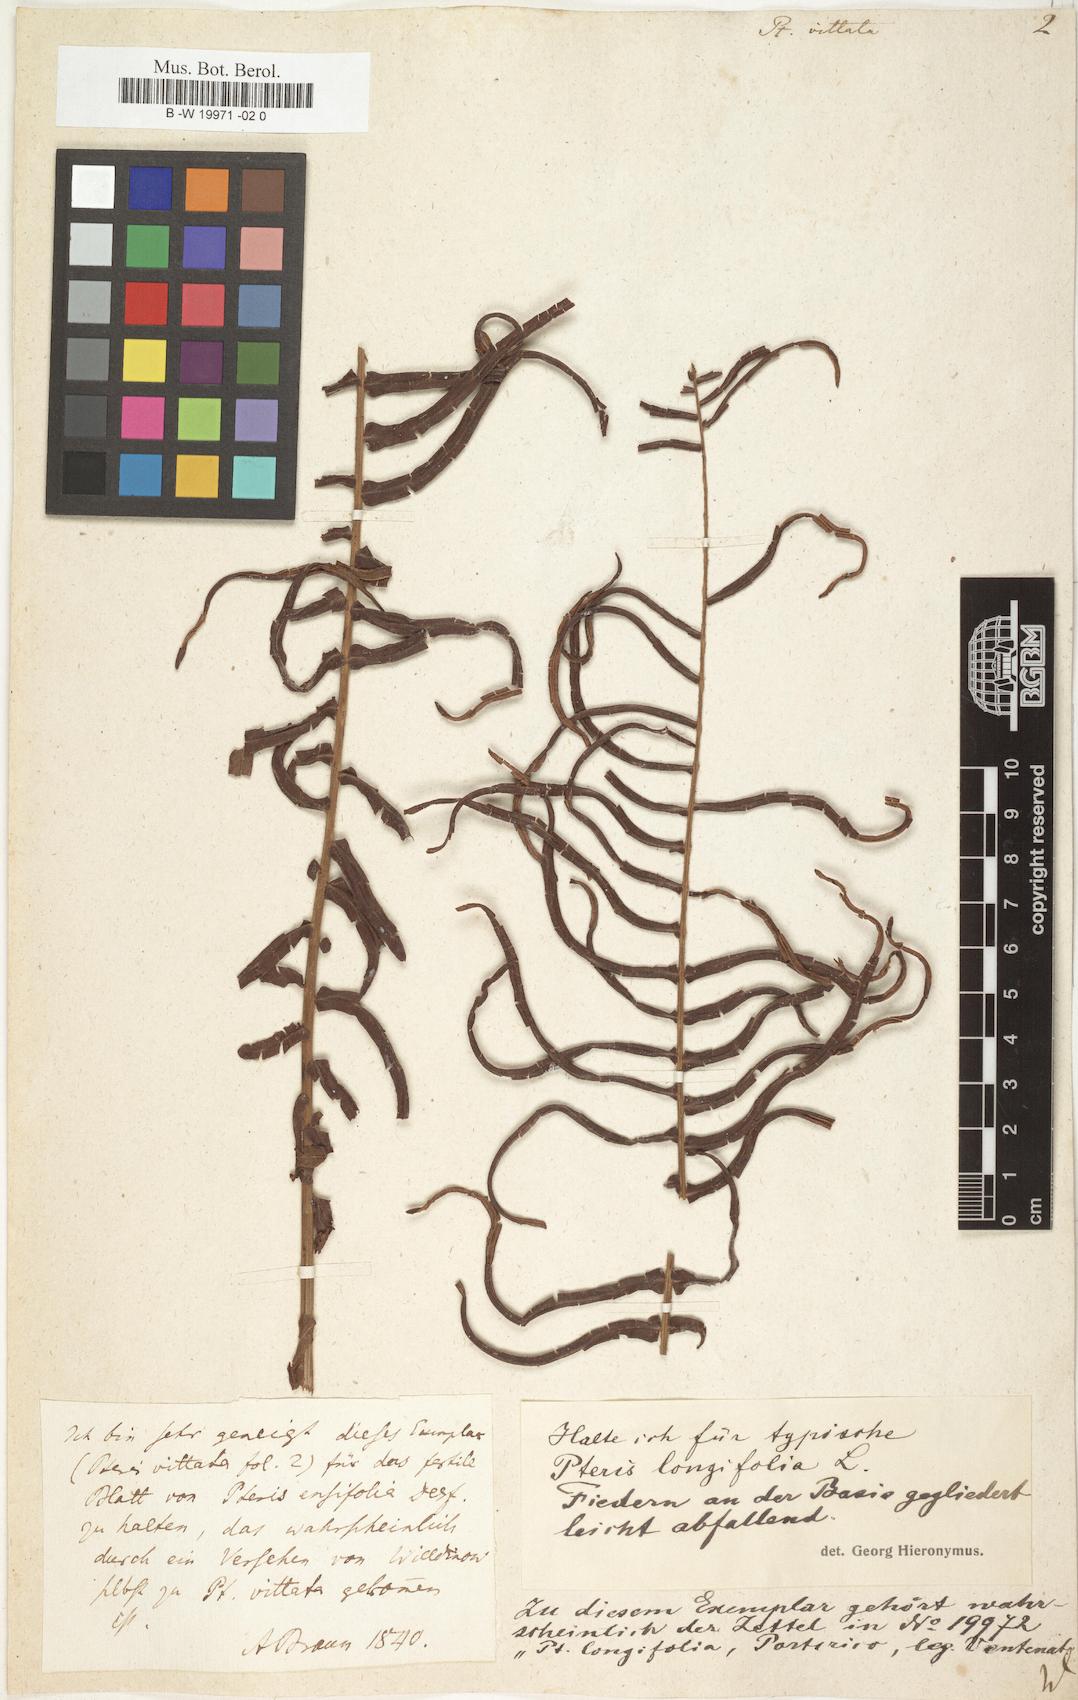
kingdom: Plantae
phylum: Tracheophyta
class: Polypodiopsida
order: Polypodiales
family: Pteridaceae
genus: Pteris
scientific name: Pteris vittata
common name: Ladder brake
